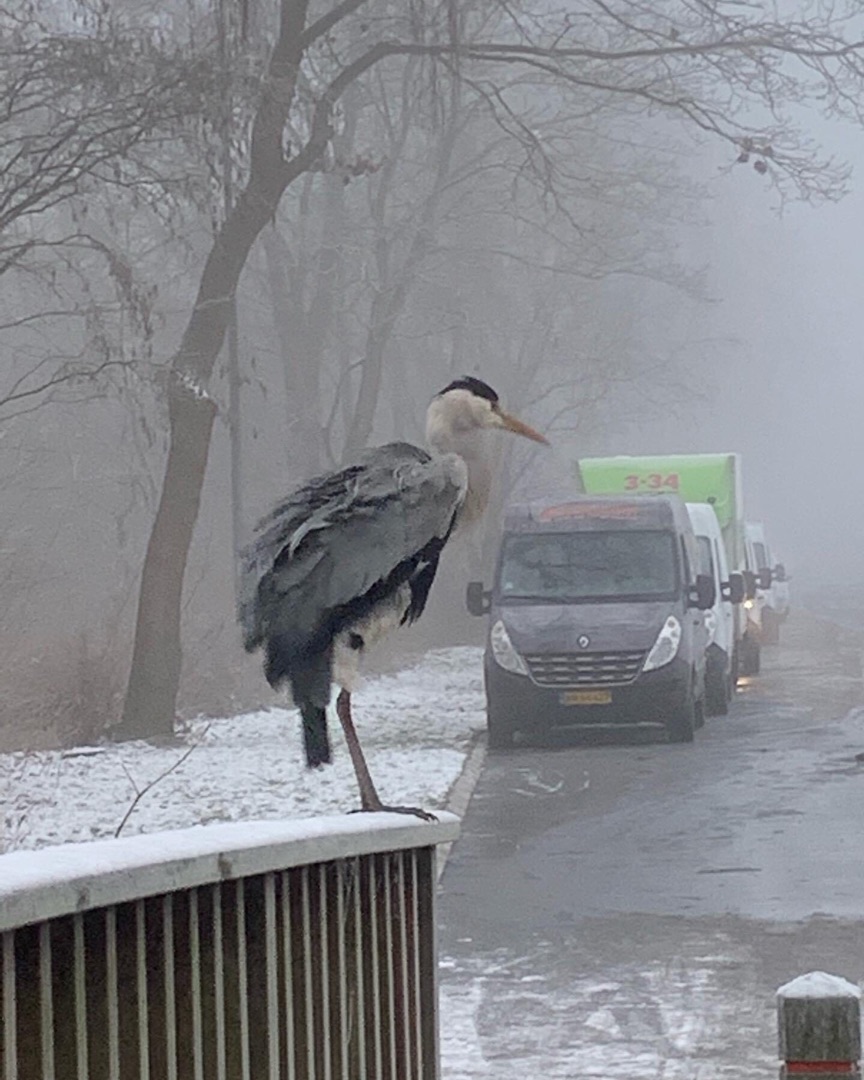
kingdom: Animalia
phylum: Chordata
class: Aves
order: Pelecaniformes
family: Ardeidae
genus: Ardea
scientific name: Ardea cinerea
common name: Fiskehejre
